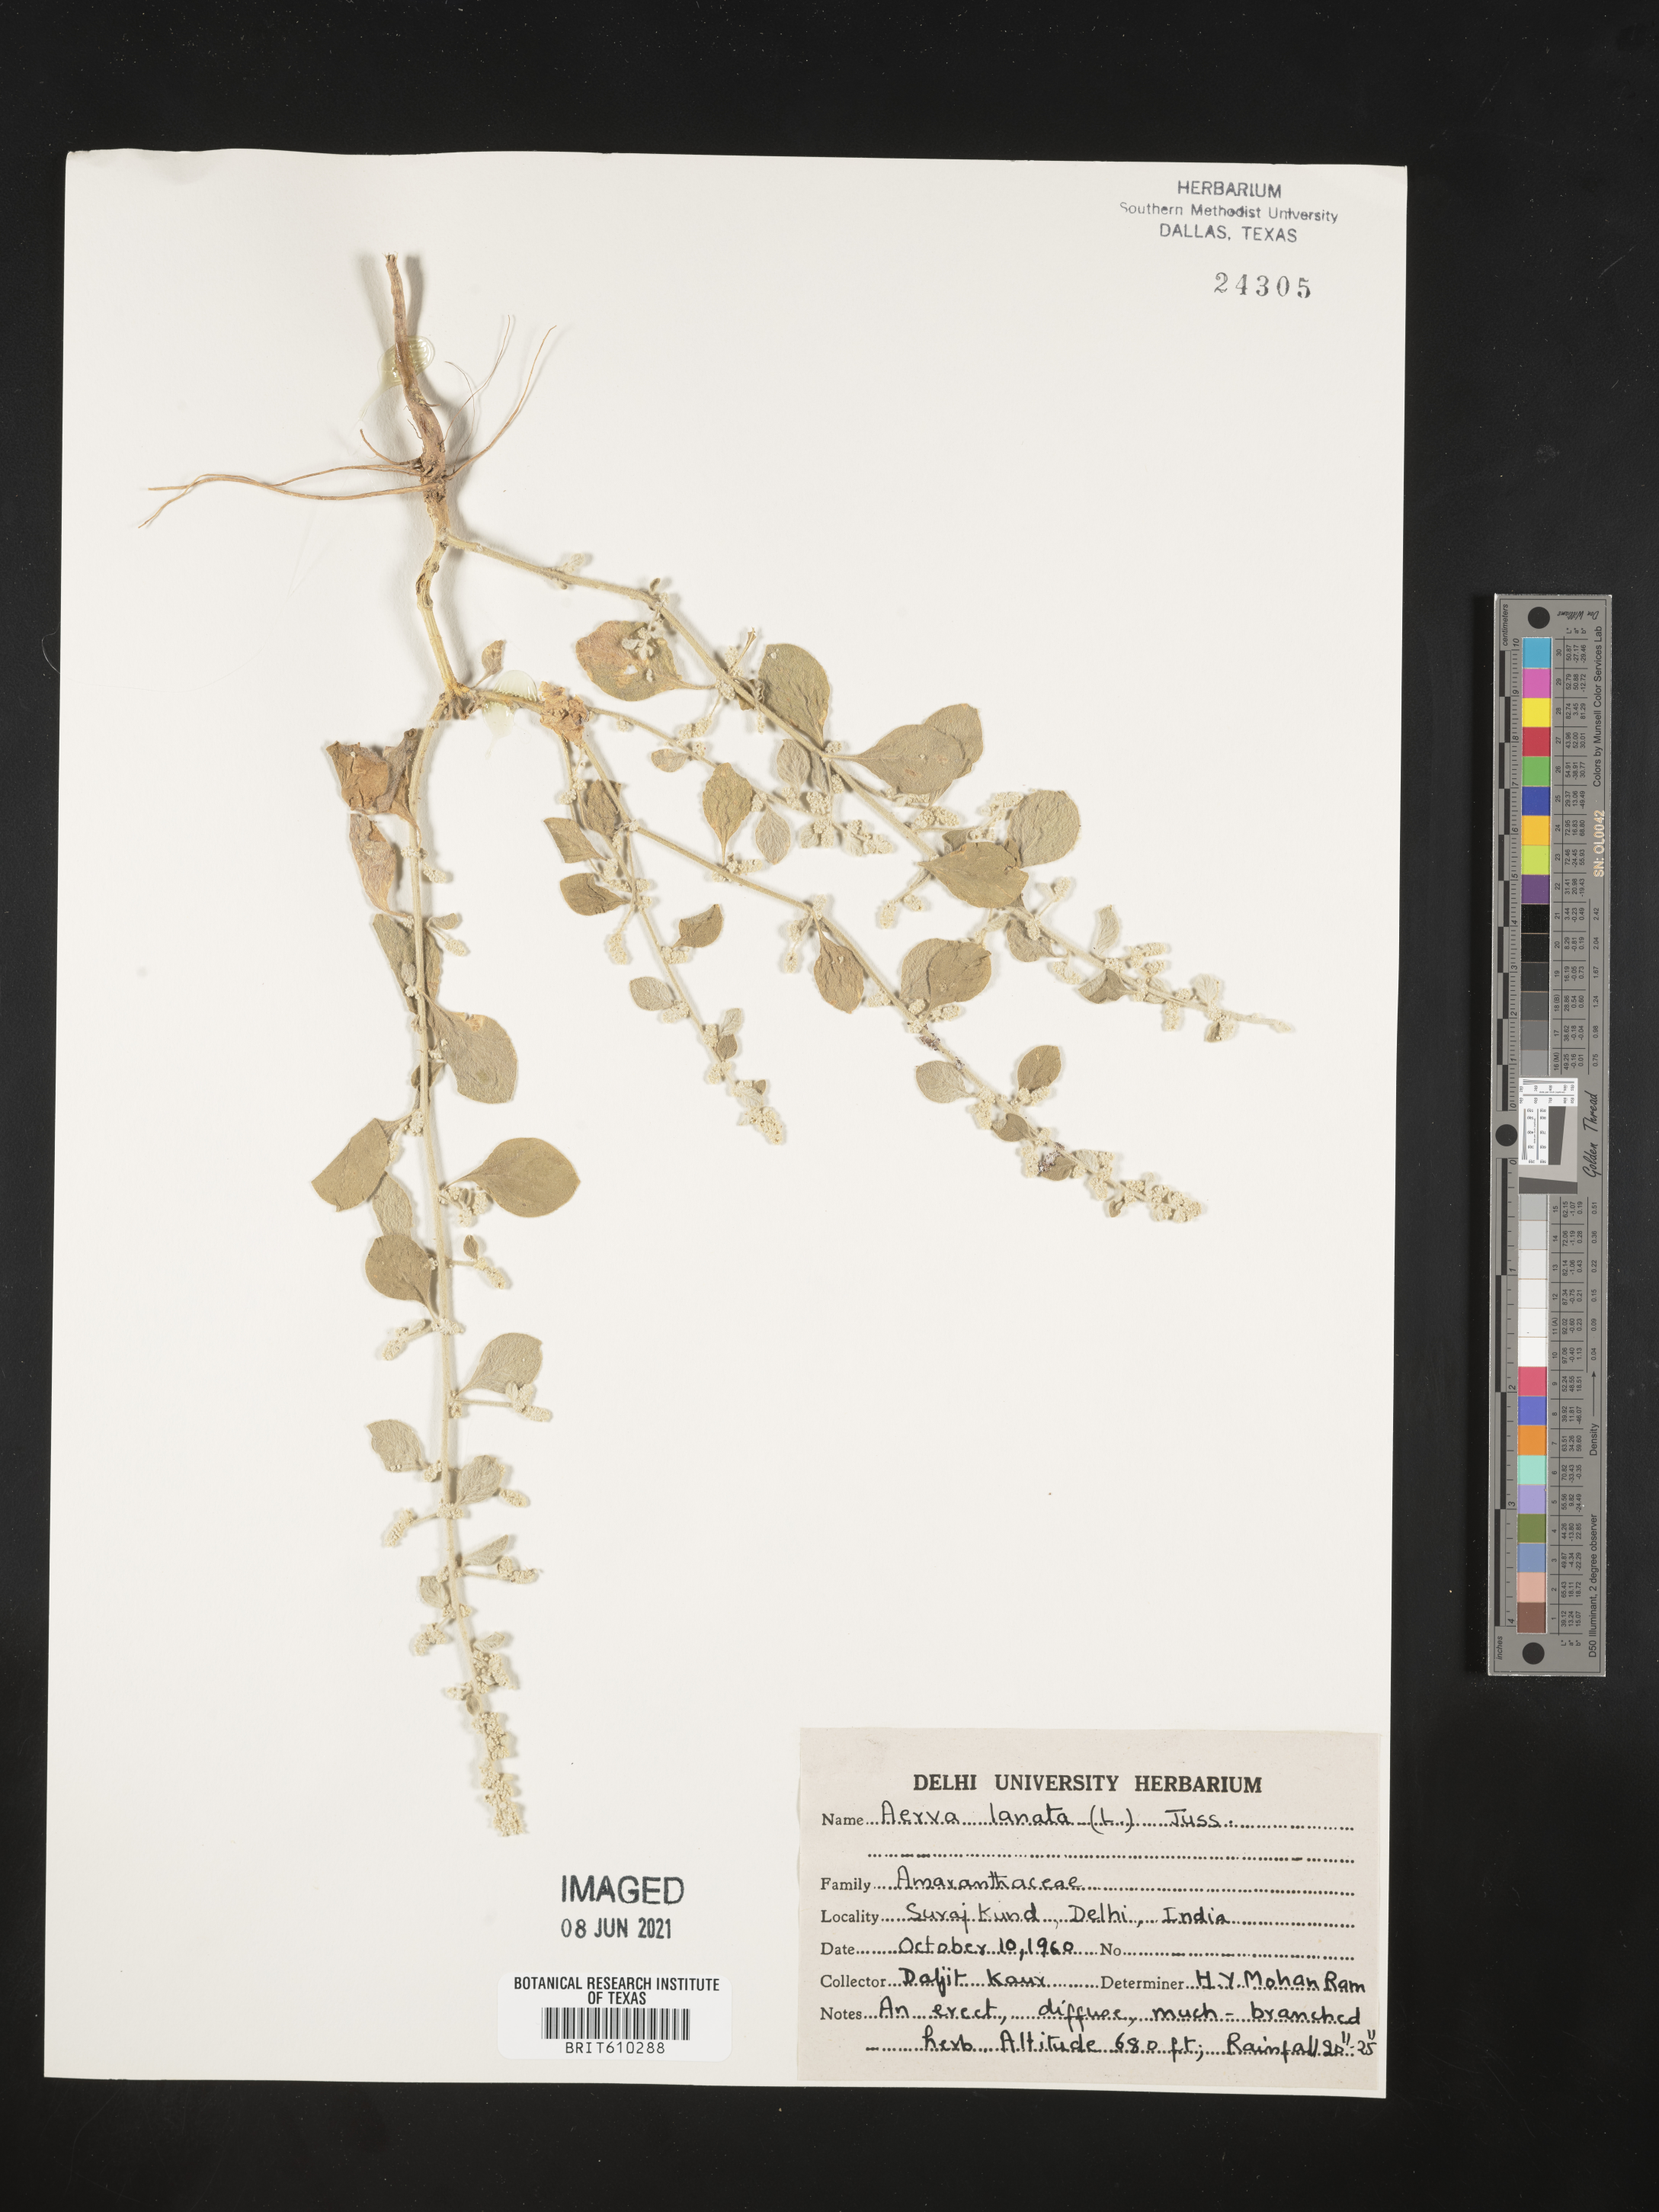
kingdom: Plantae
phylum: Tracheophyta
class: Magnoliopsida
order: Caryophyllales
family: Amaranthaceae
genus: Ouret
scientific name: Ouret lanata
